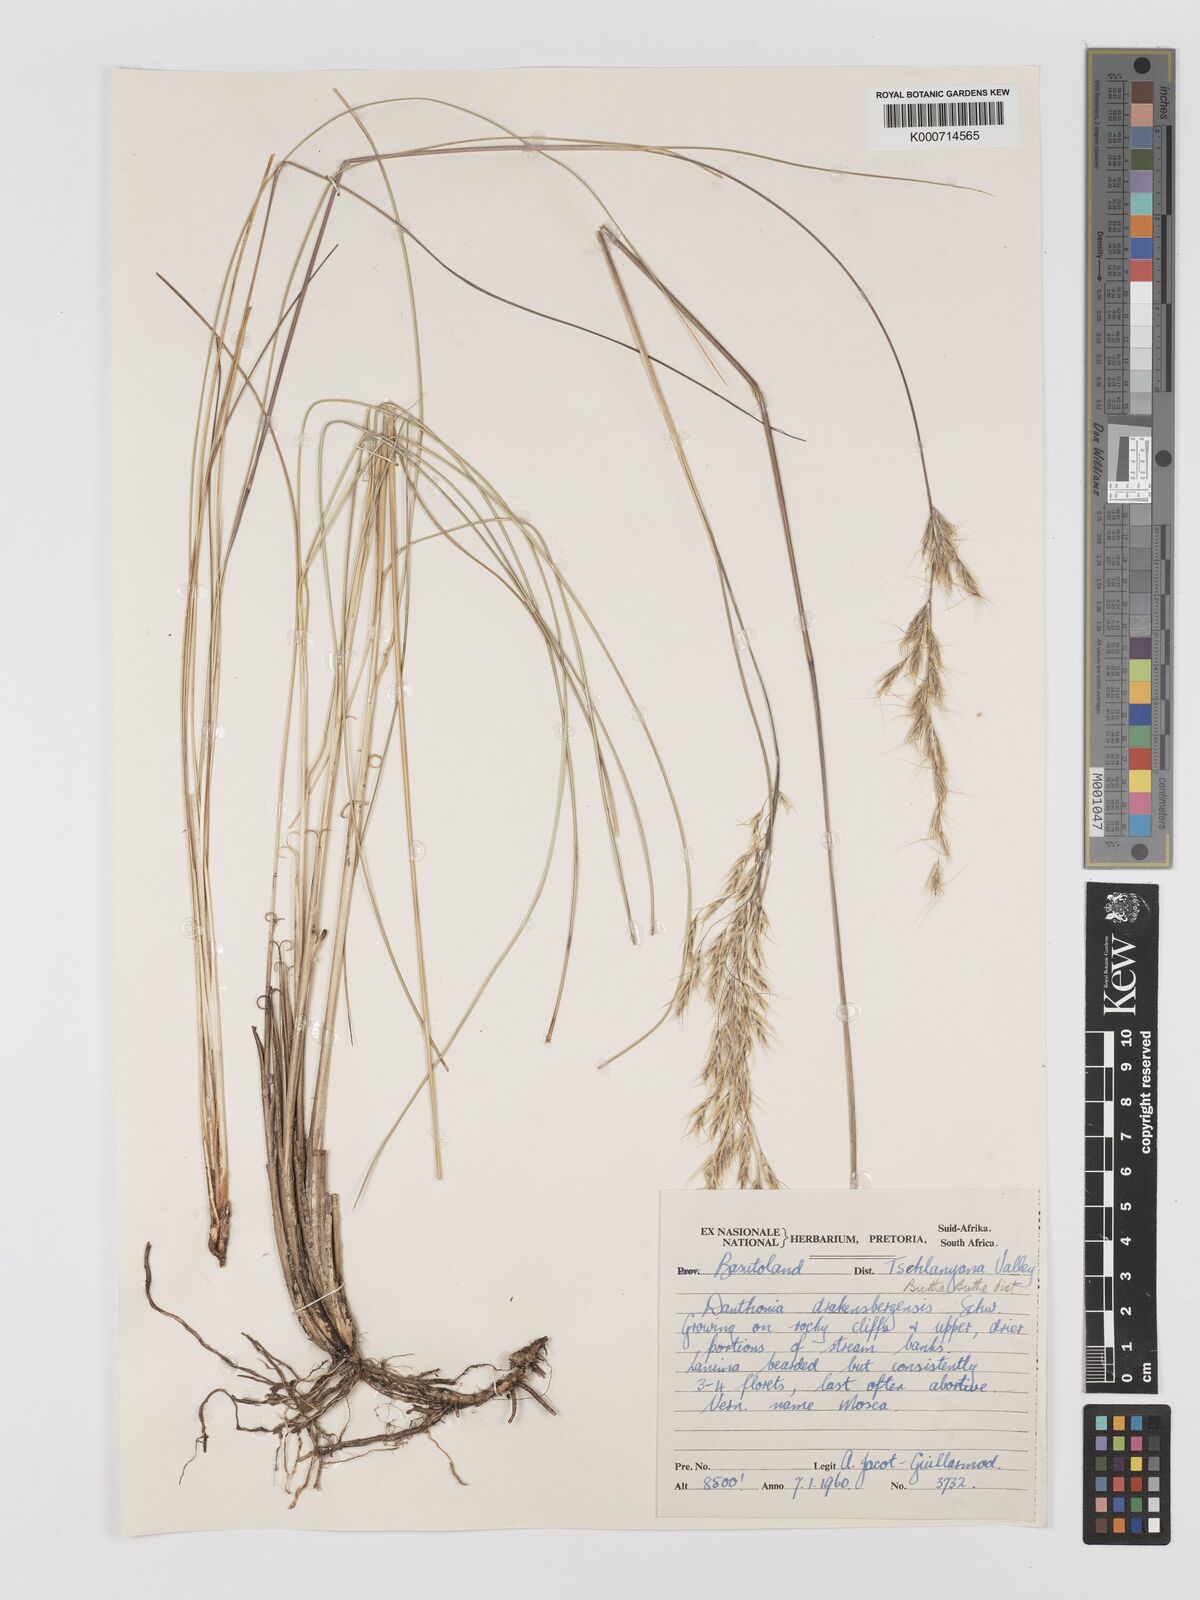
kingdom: Plantae
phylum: Tracheophyta
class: Liliopsida
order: Poales
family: Poaceae
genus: Rytidosperma
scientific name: Rytidosperma
